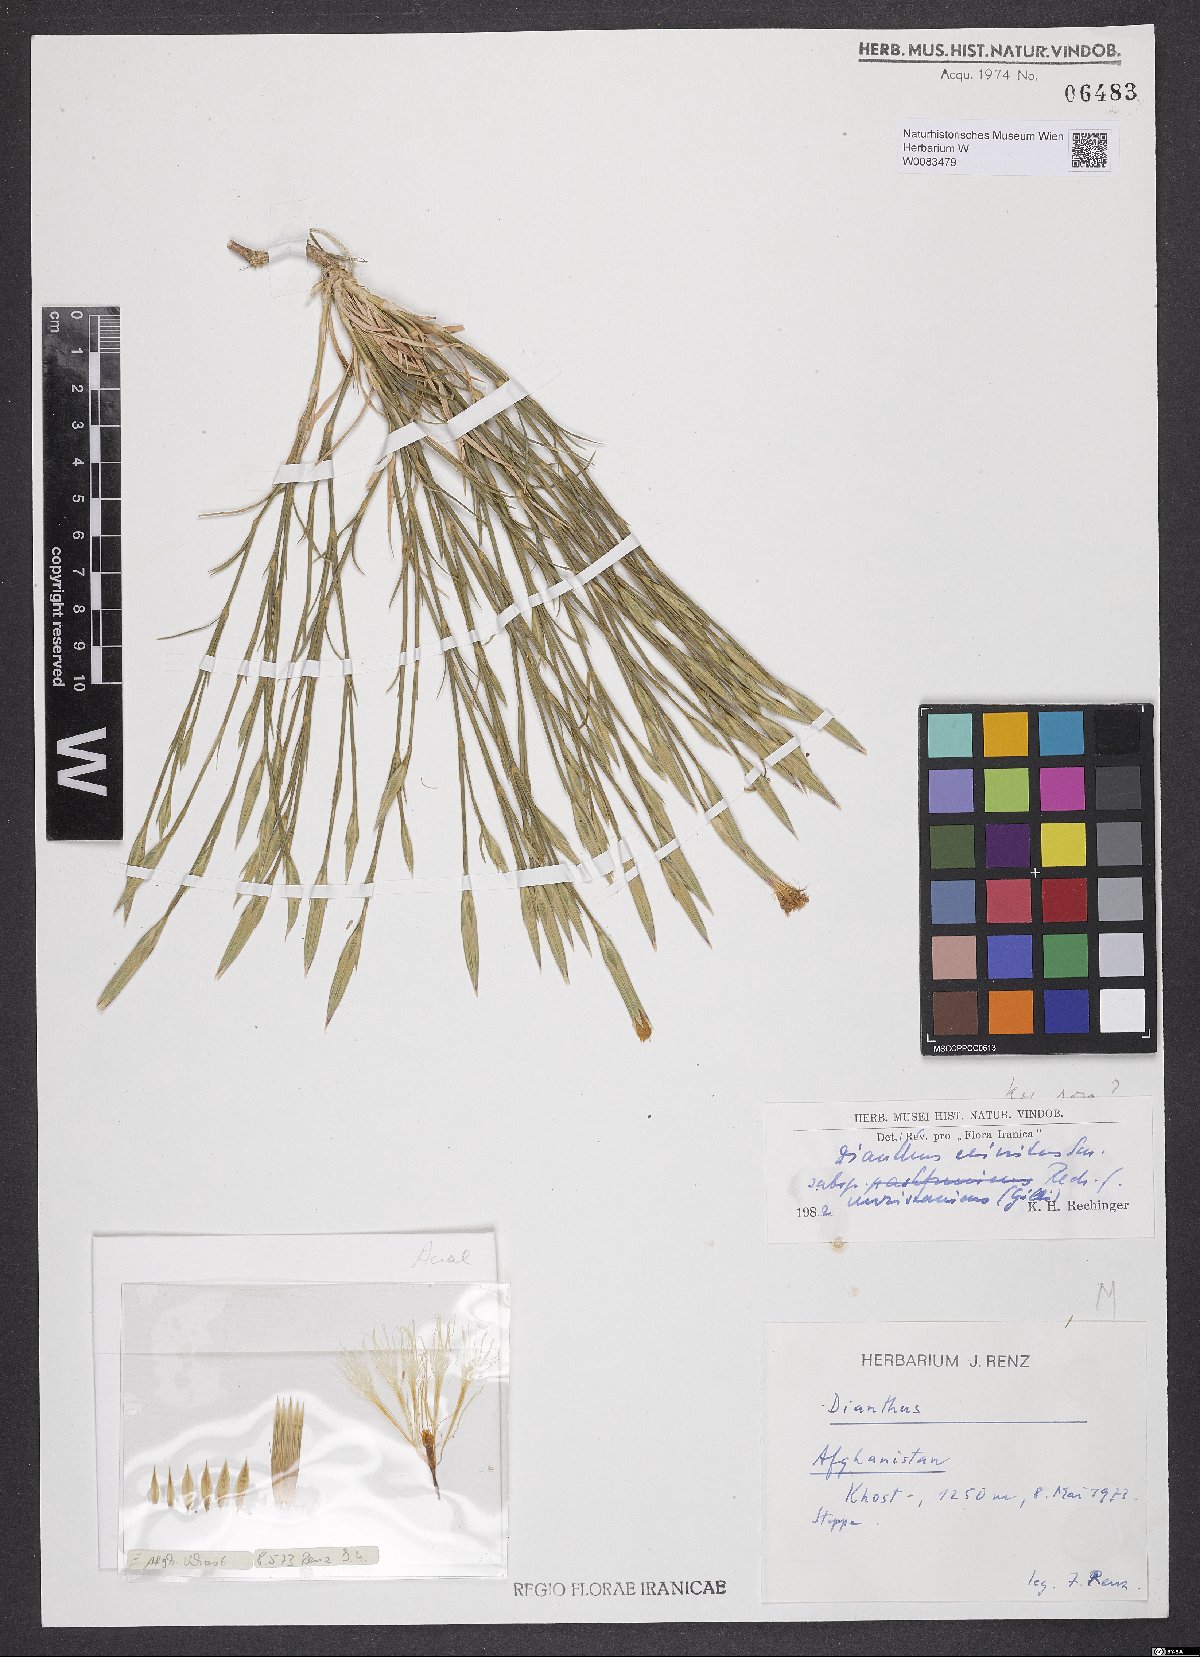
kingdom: Plantae
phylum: Tracheophyta
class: Magnoliopsida
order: Caryophyllales
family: Caryophyllaceae
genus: Dianthus
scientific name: Dianthus crinitus
